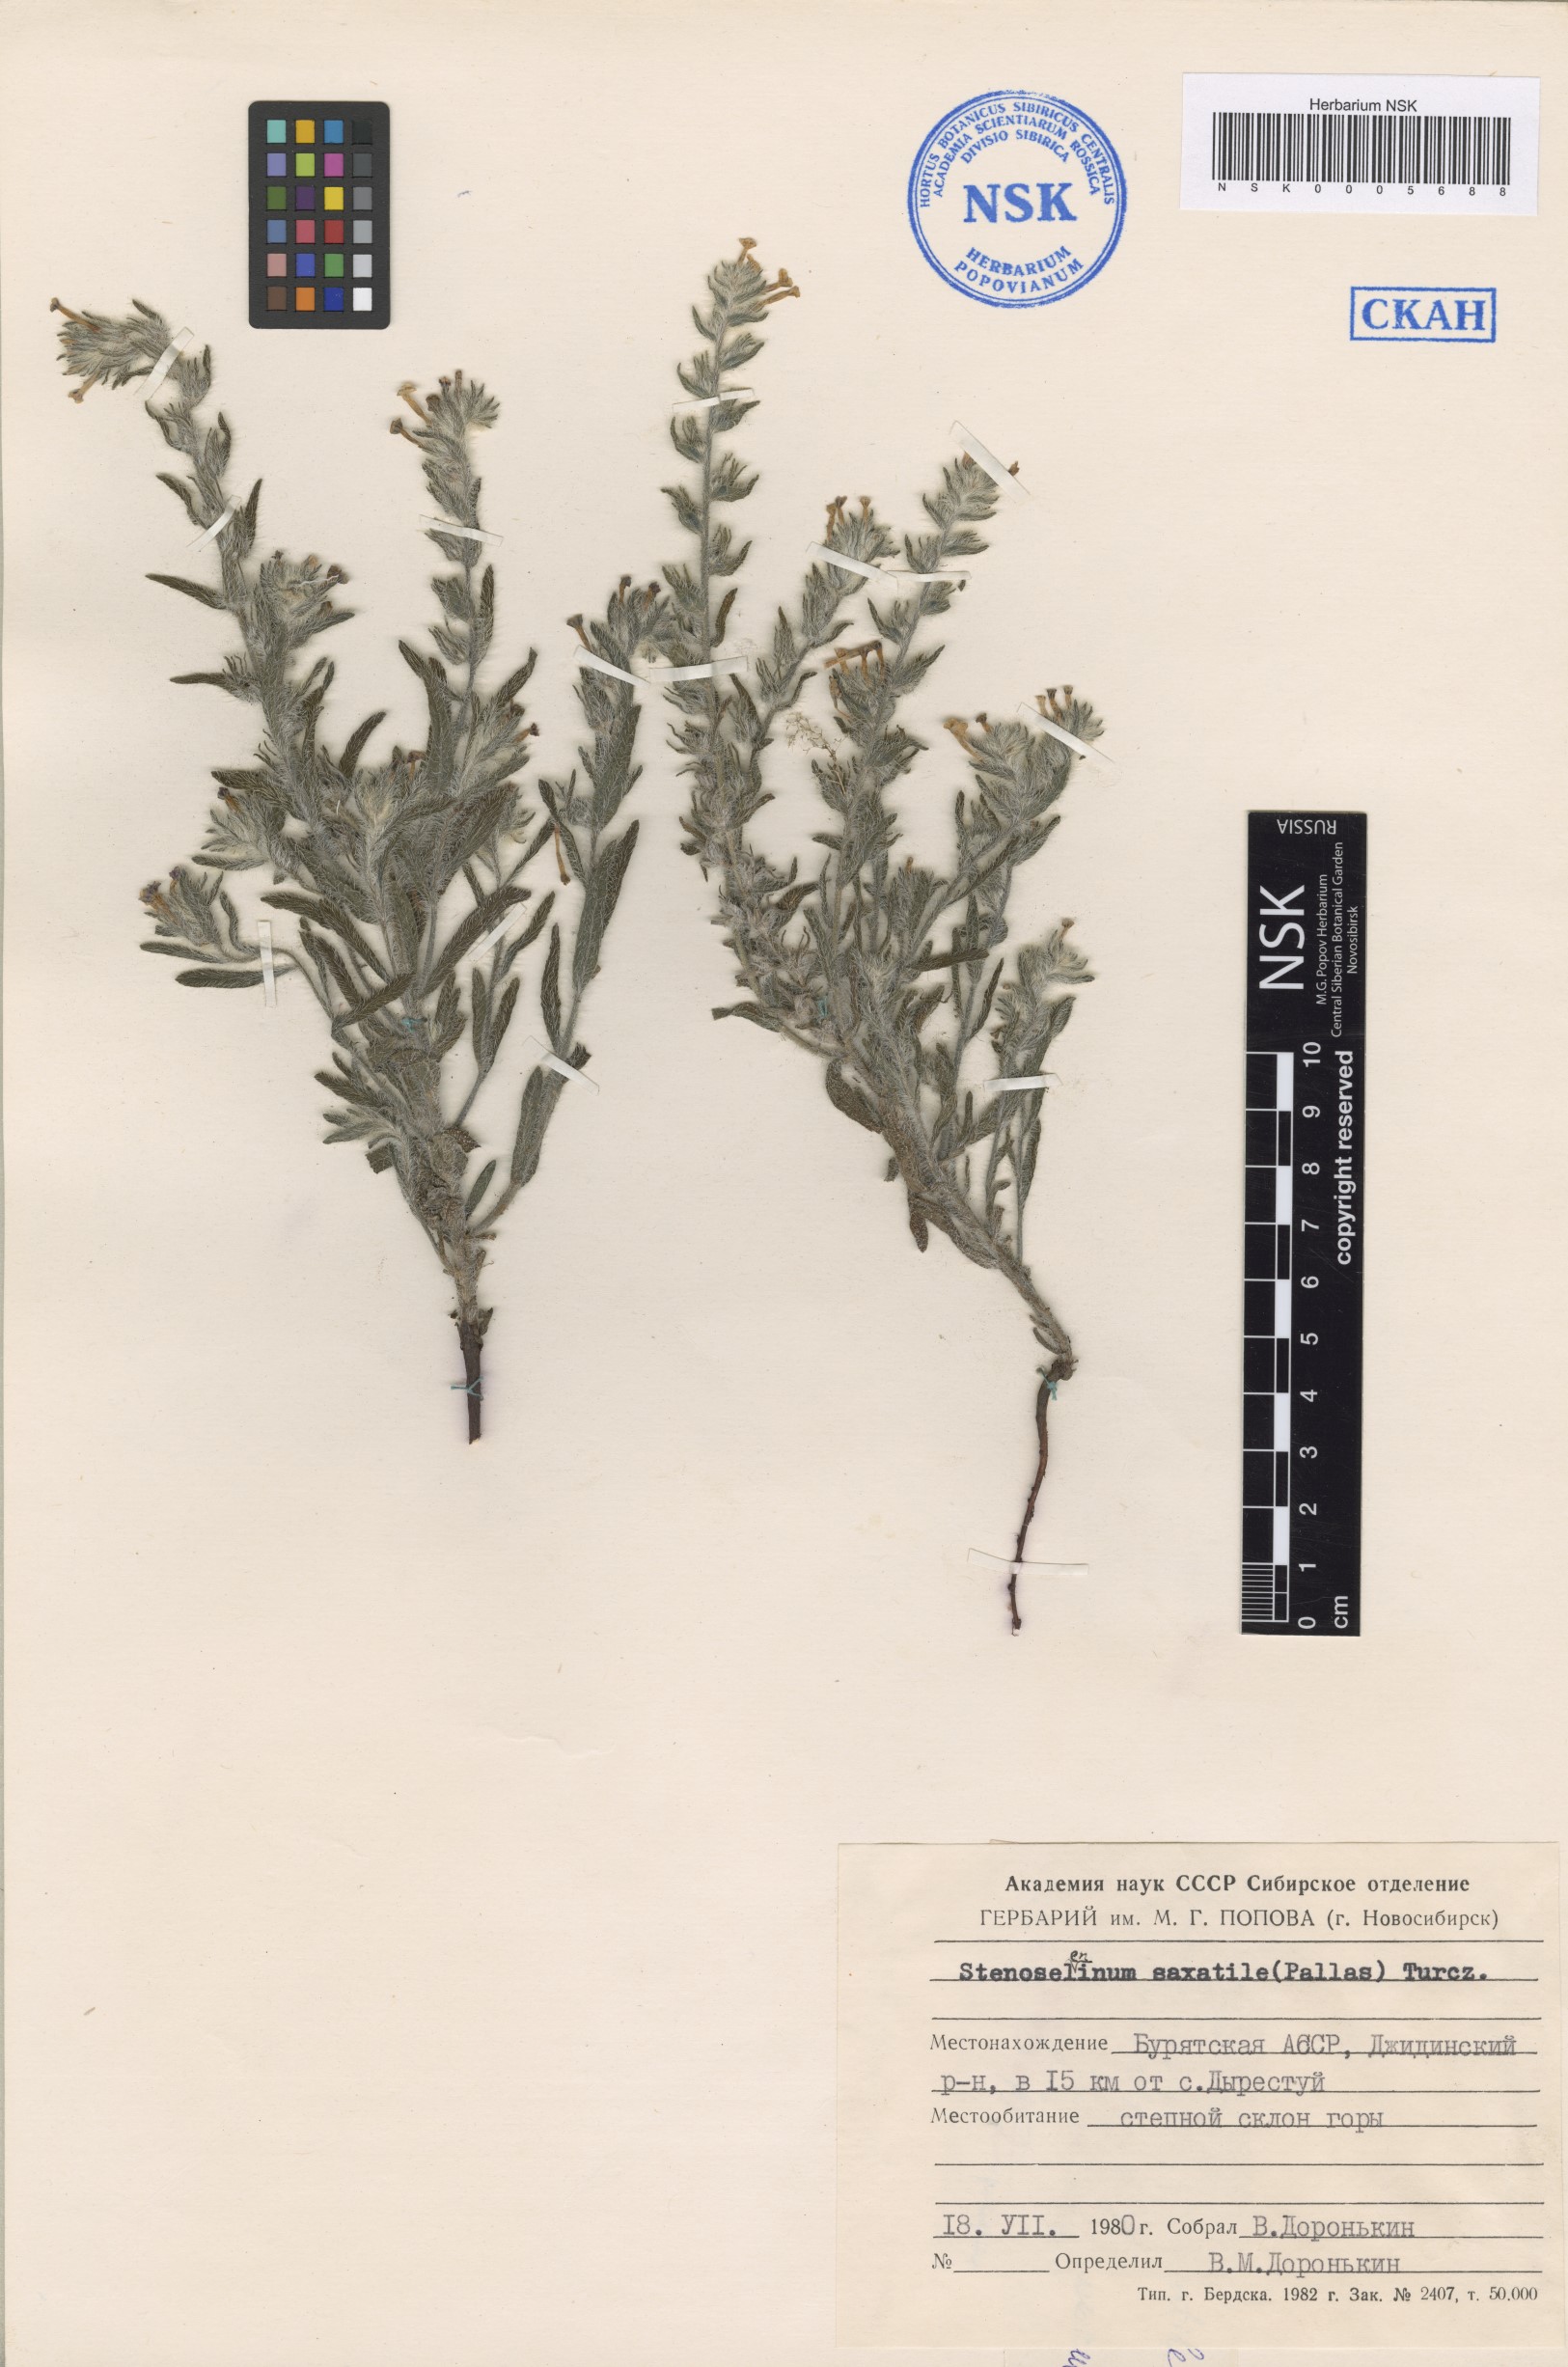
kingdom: Plantae
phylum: Tracheophyta
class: Magnoliopsida
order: Boraginales
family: Boraginaceae
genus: Stenosolenium
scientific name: Stenosolenium saxatile
